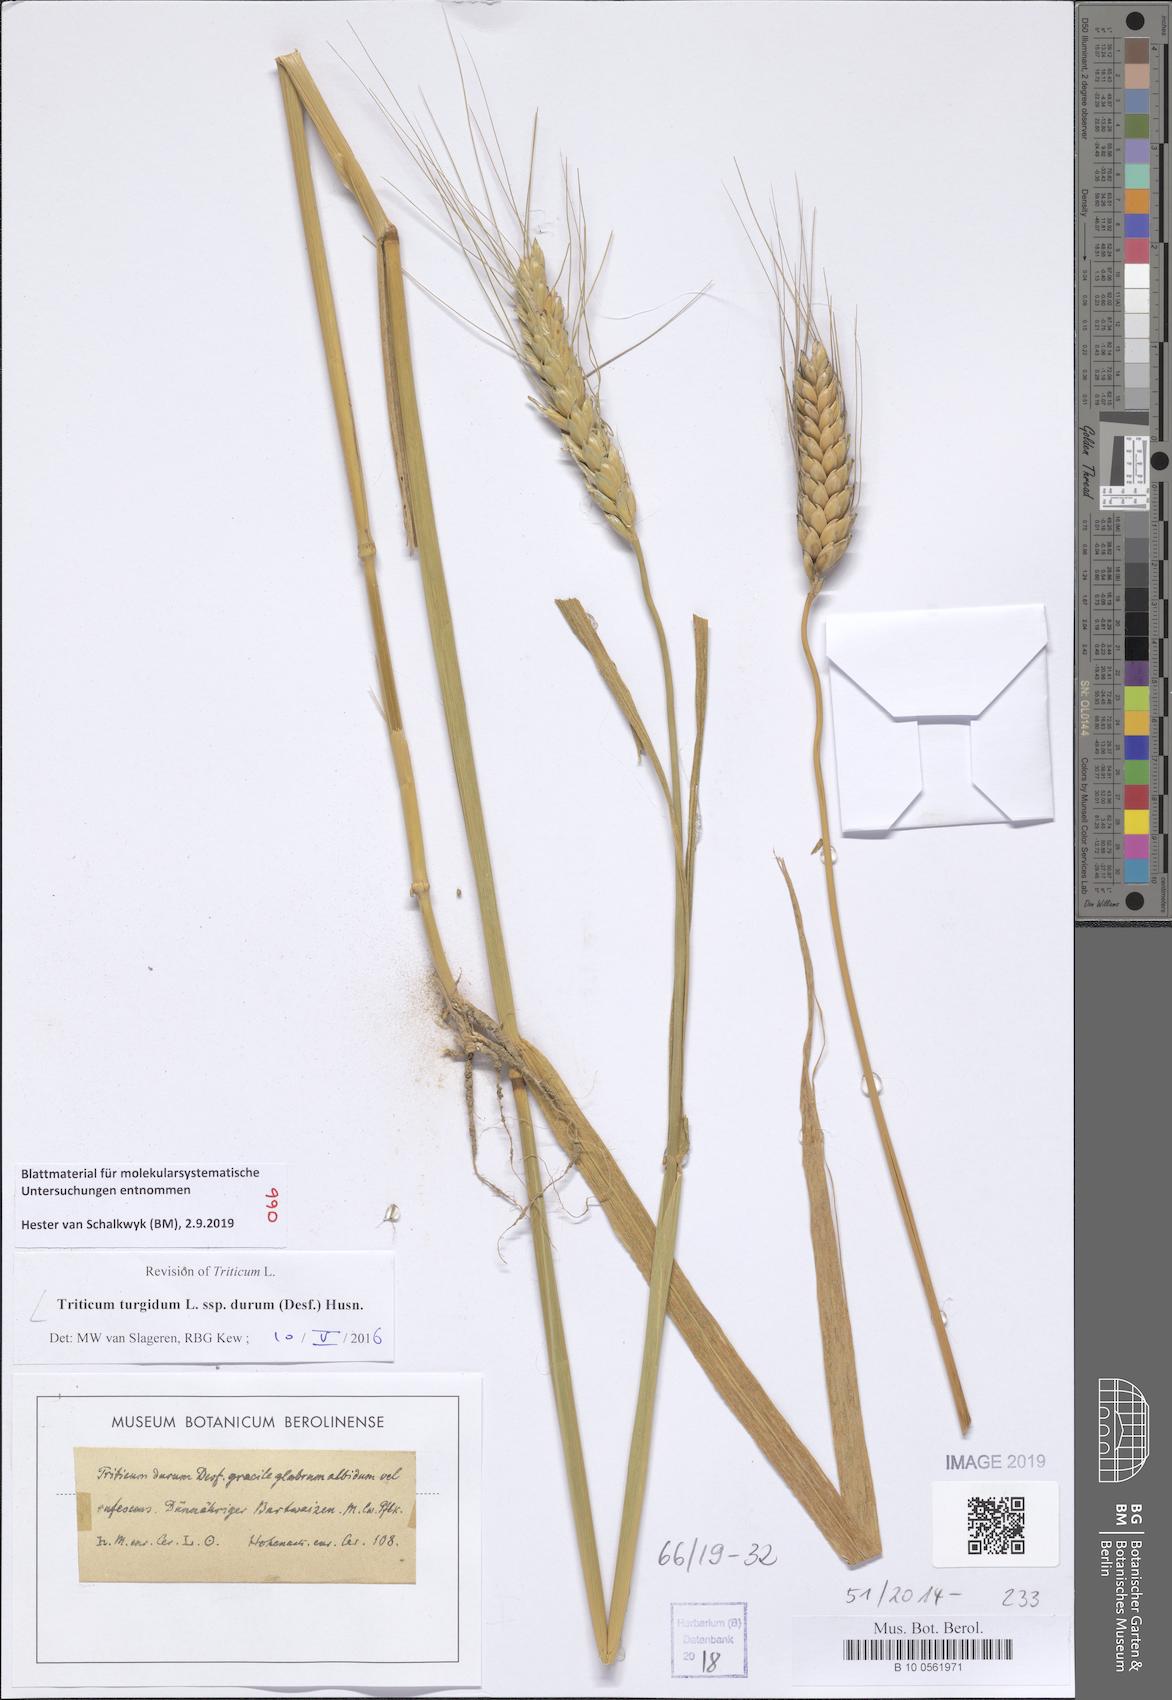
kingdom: Plantae
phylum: Tracheophyta
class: Liliopsida
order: Poales
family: Poaceae
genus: Triticum
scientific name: Triticum turgidum
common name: Rivet wheat
